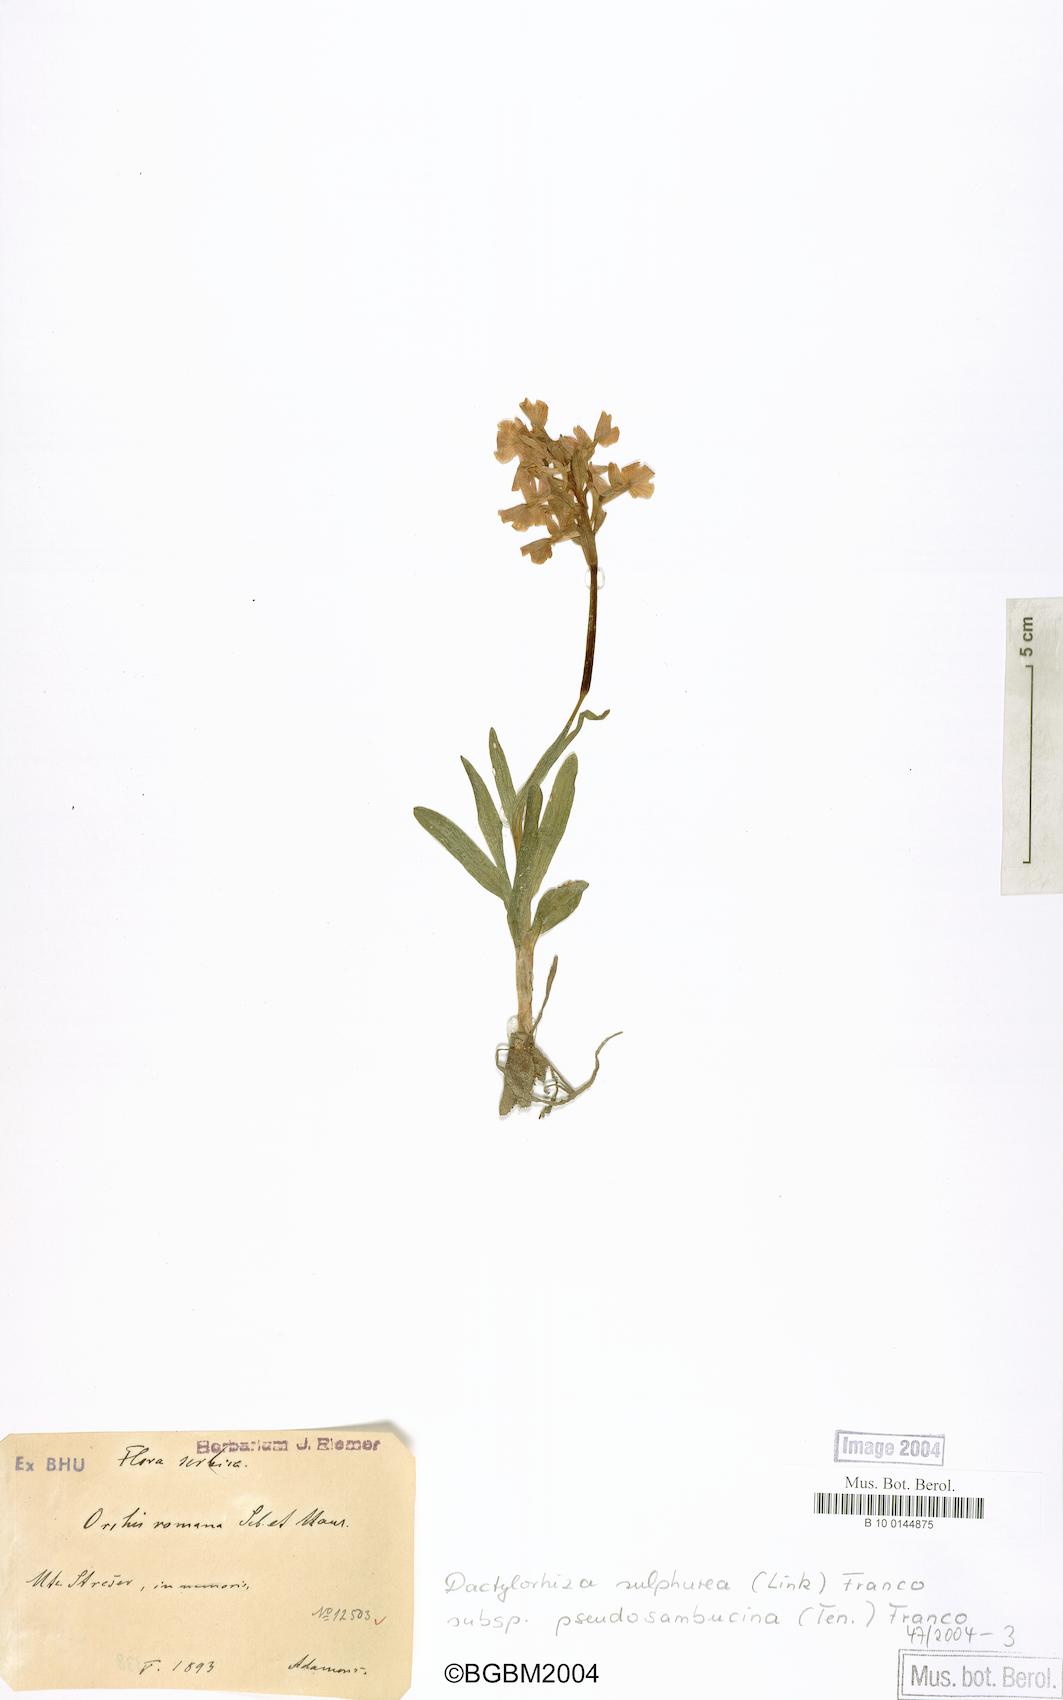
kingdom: Plantae
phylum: Tracheophyta
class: Liliopsida
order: Asparagales
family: Orchidaceae
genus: Dactylorhiza
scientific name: Dactylorhiza romana
